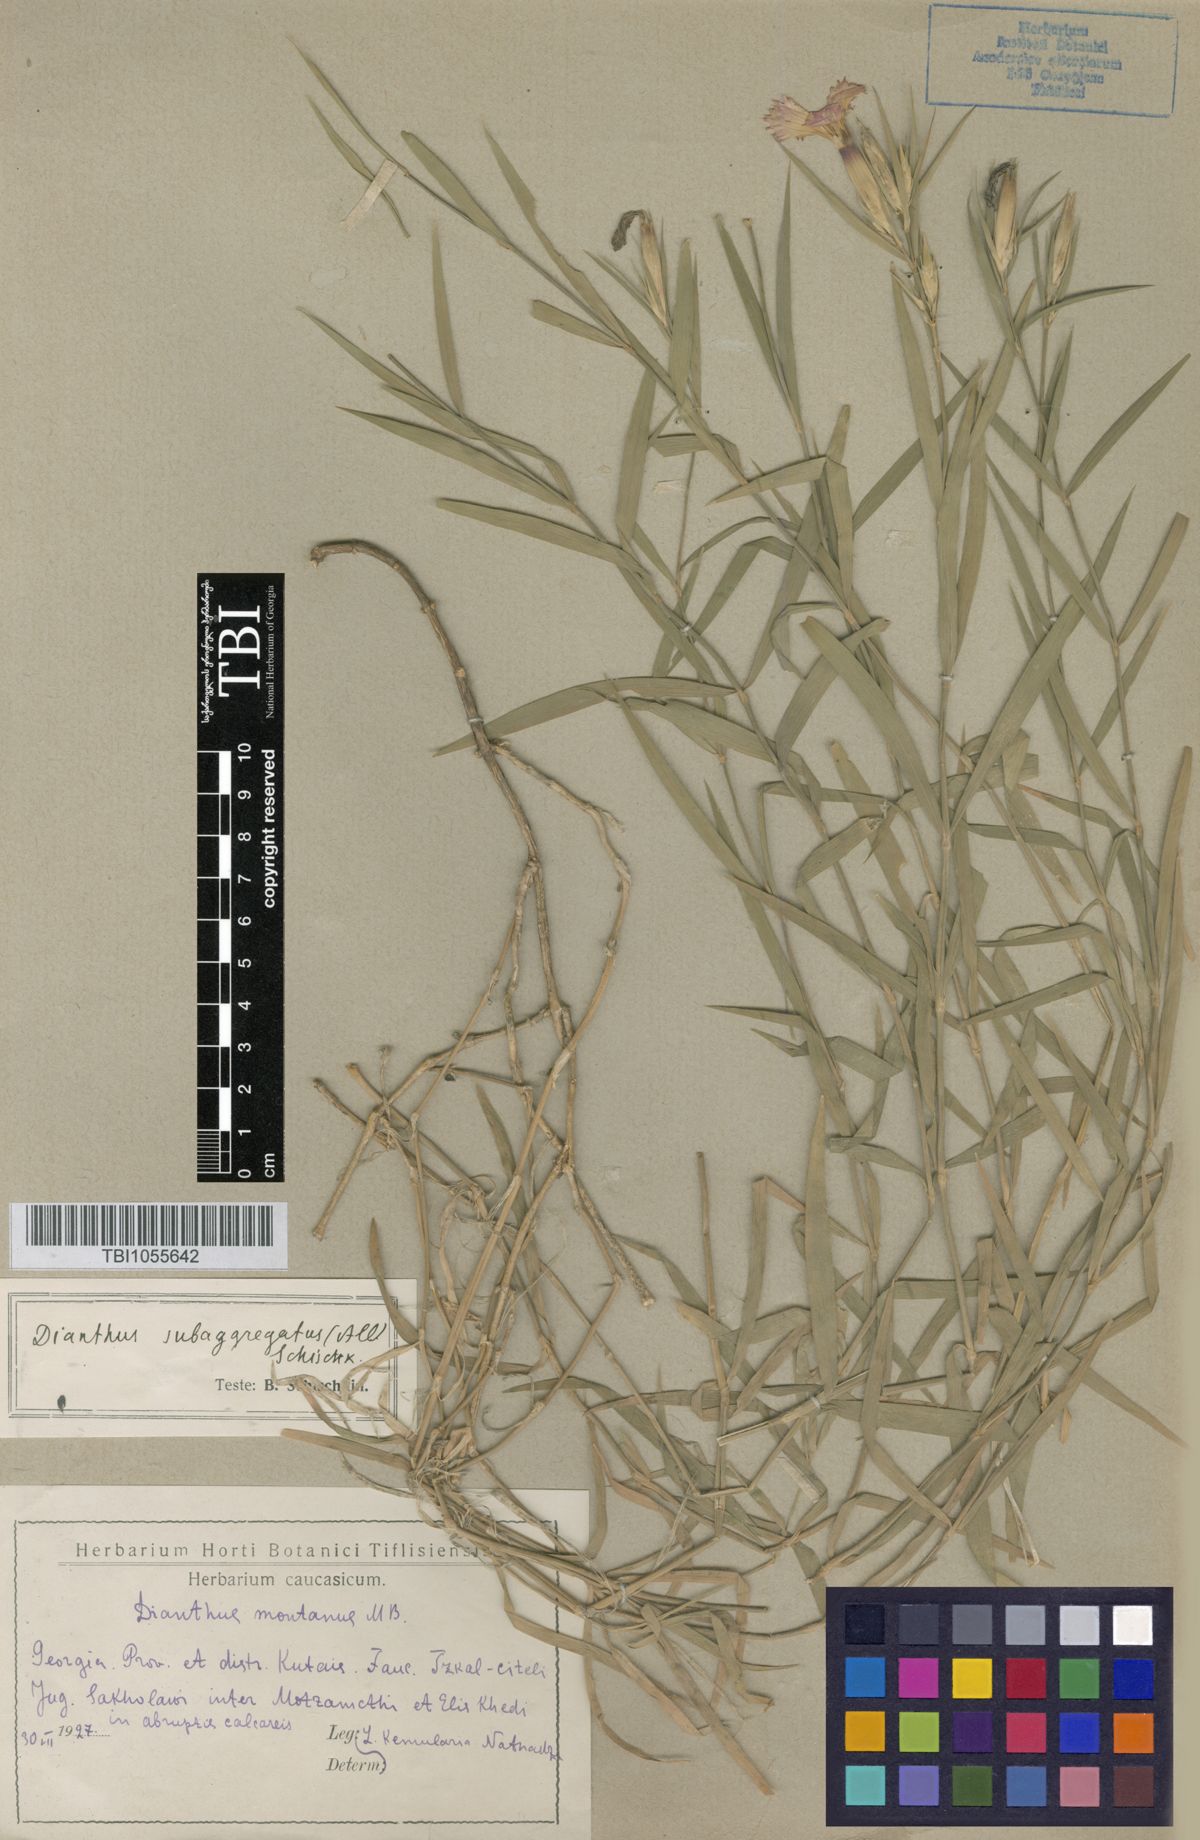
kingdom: Plantae
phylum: Tracheophyta
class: Magnoliopsida
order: Caryophyllales
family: Caryophyllaceae
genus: Dianthus
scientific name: Dianthus imereticus
